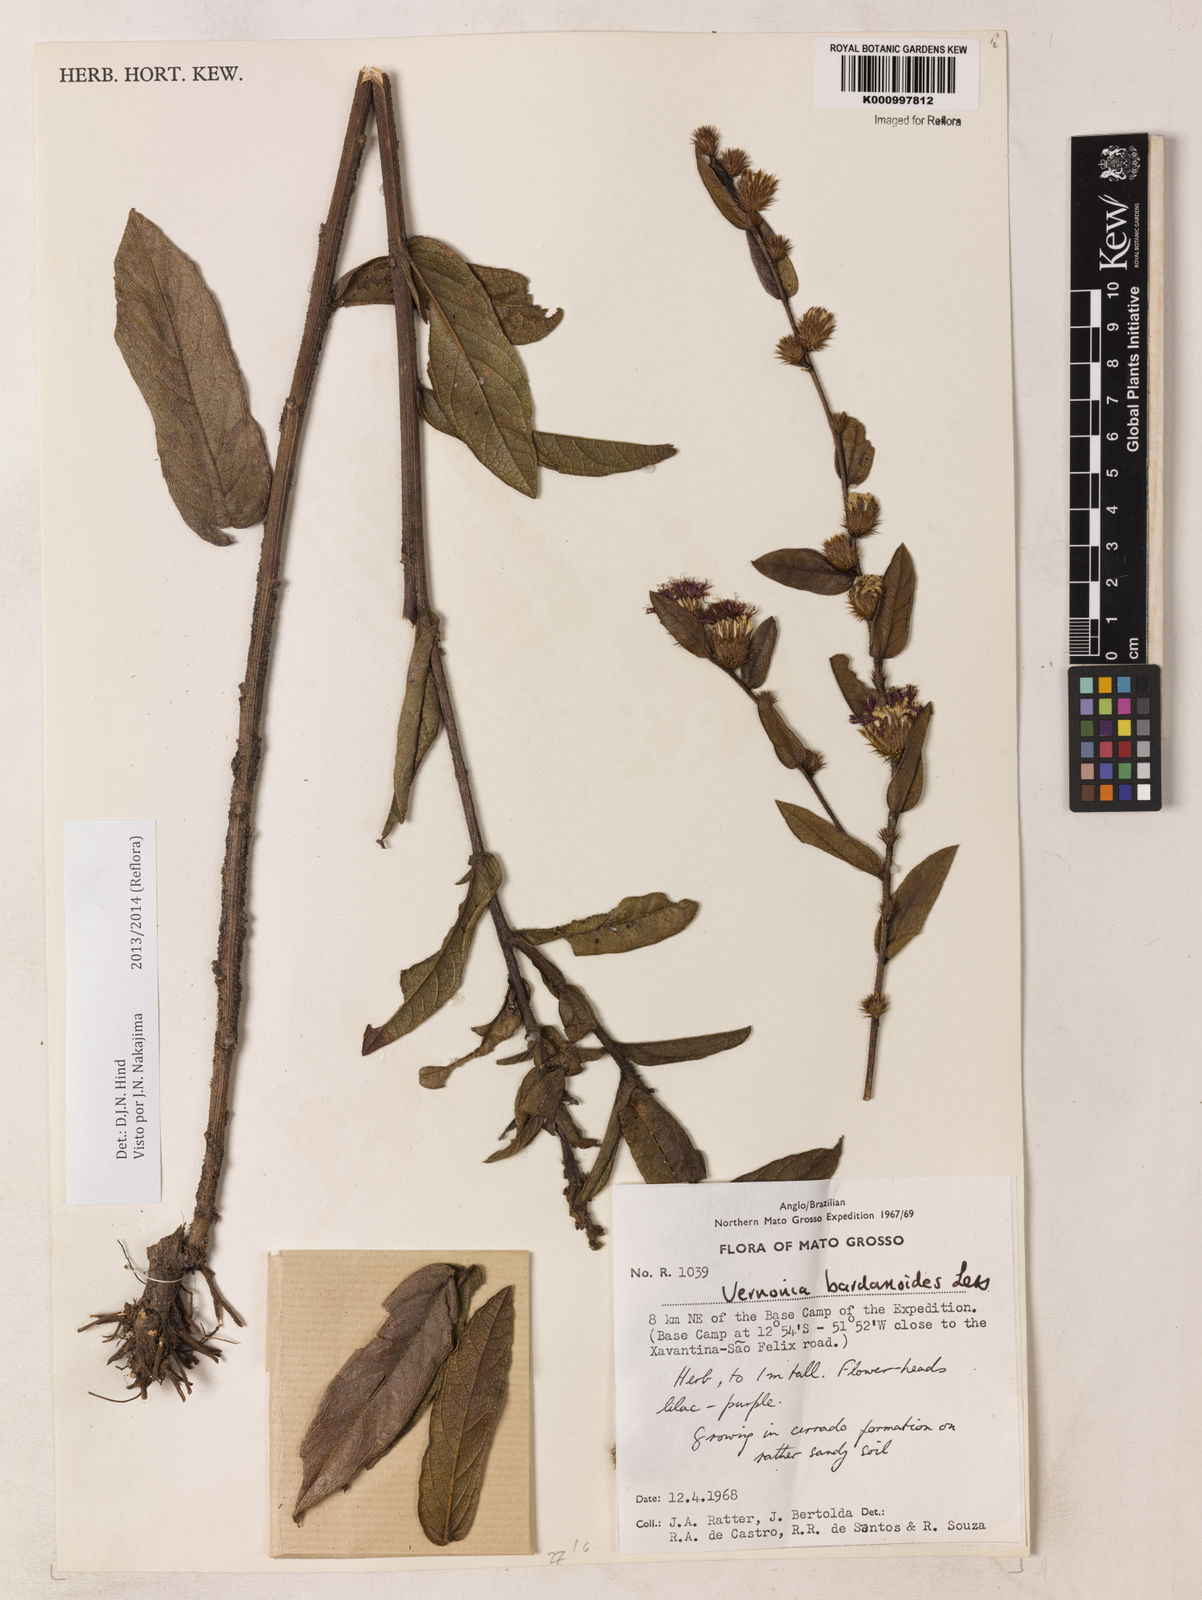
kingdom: Plantae
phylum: Tracheophyta
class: Magnoliopsida
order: Asterales
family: Asteraceae
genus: Lessingianthus
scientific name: Lessingianthus bardanioides
